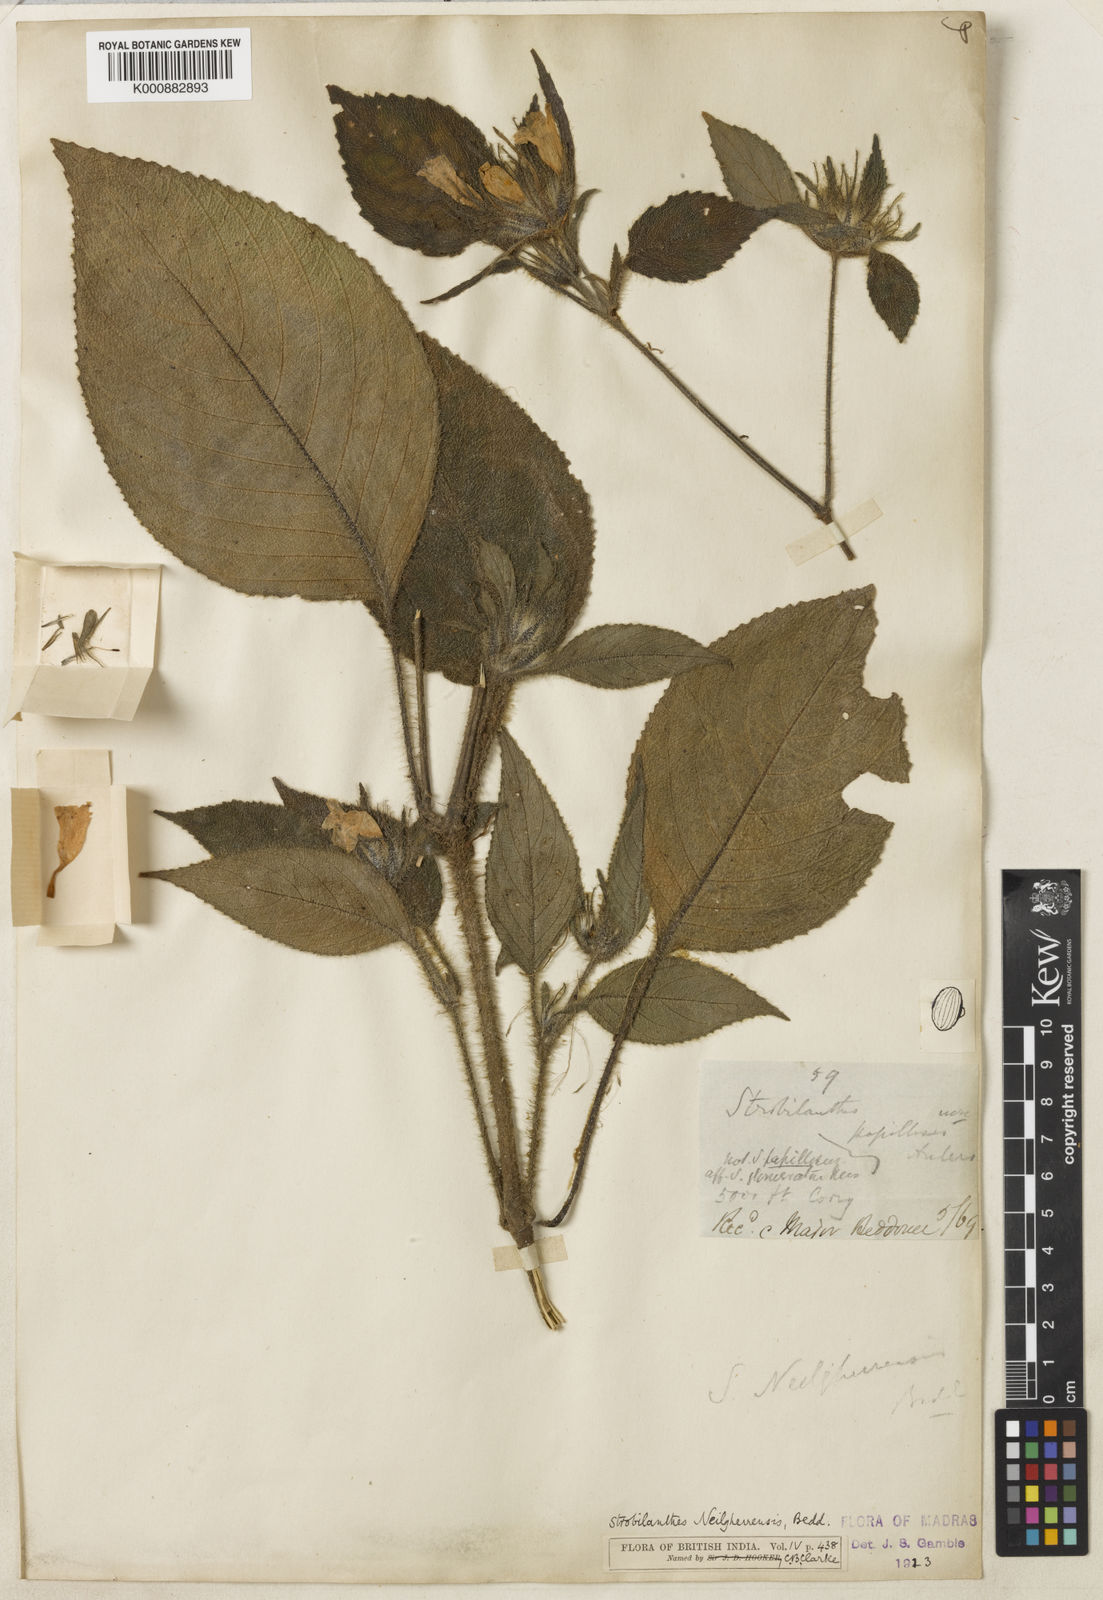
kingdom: Plantae
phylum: Tracheophyta
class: Magnoliopsida
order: Lamiales
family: Acanthaceae
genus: Strobilanthes
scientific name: Strobilanthes neilgherrensis
